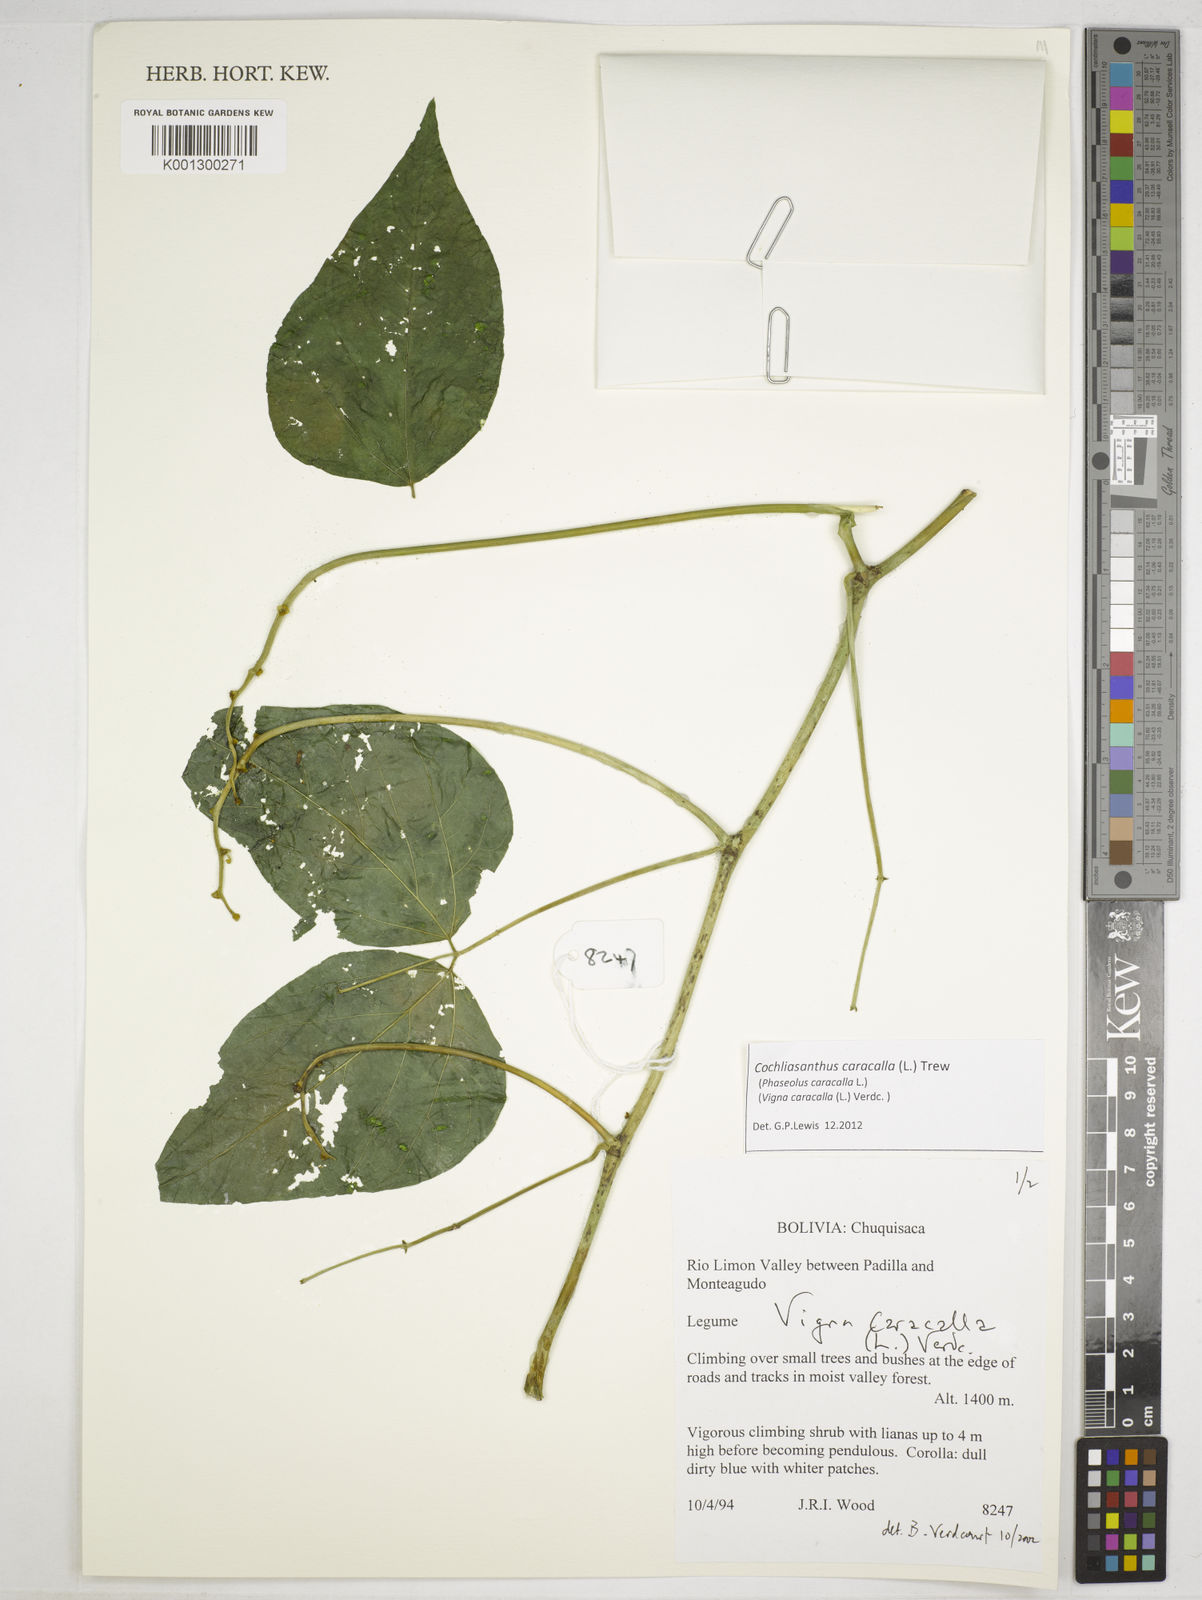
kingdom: Plantae
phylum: Tracheophyta
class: Magnoliopsida
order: Fabales
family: Fabaceae
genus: Cochliasanthus
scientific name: Cochliasanthus caracalla
